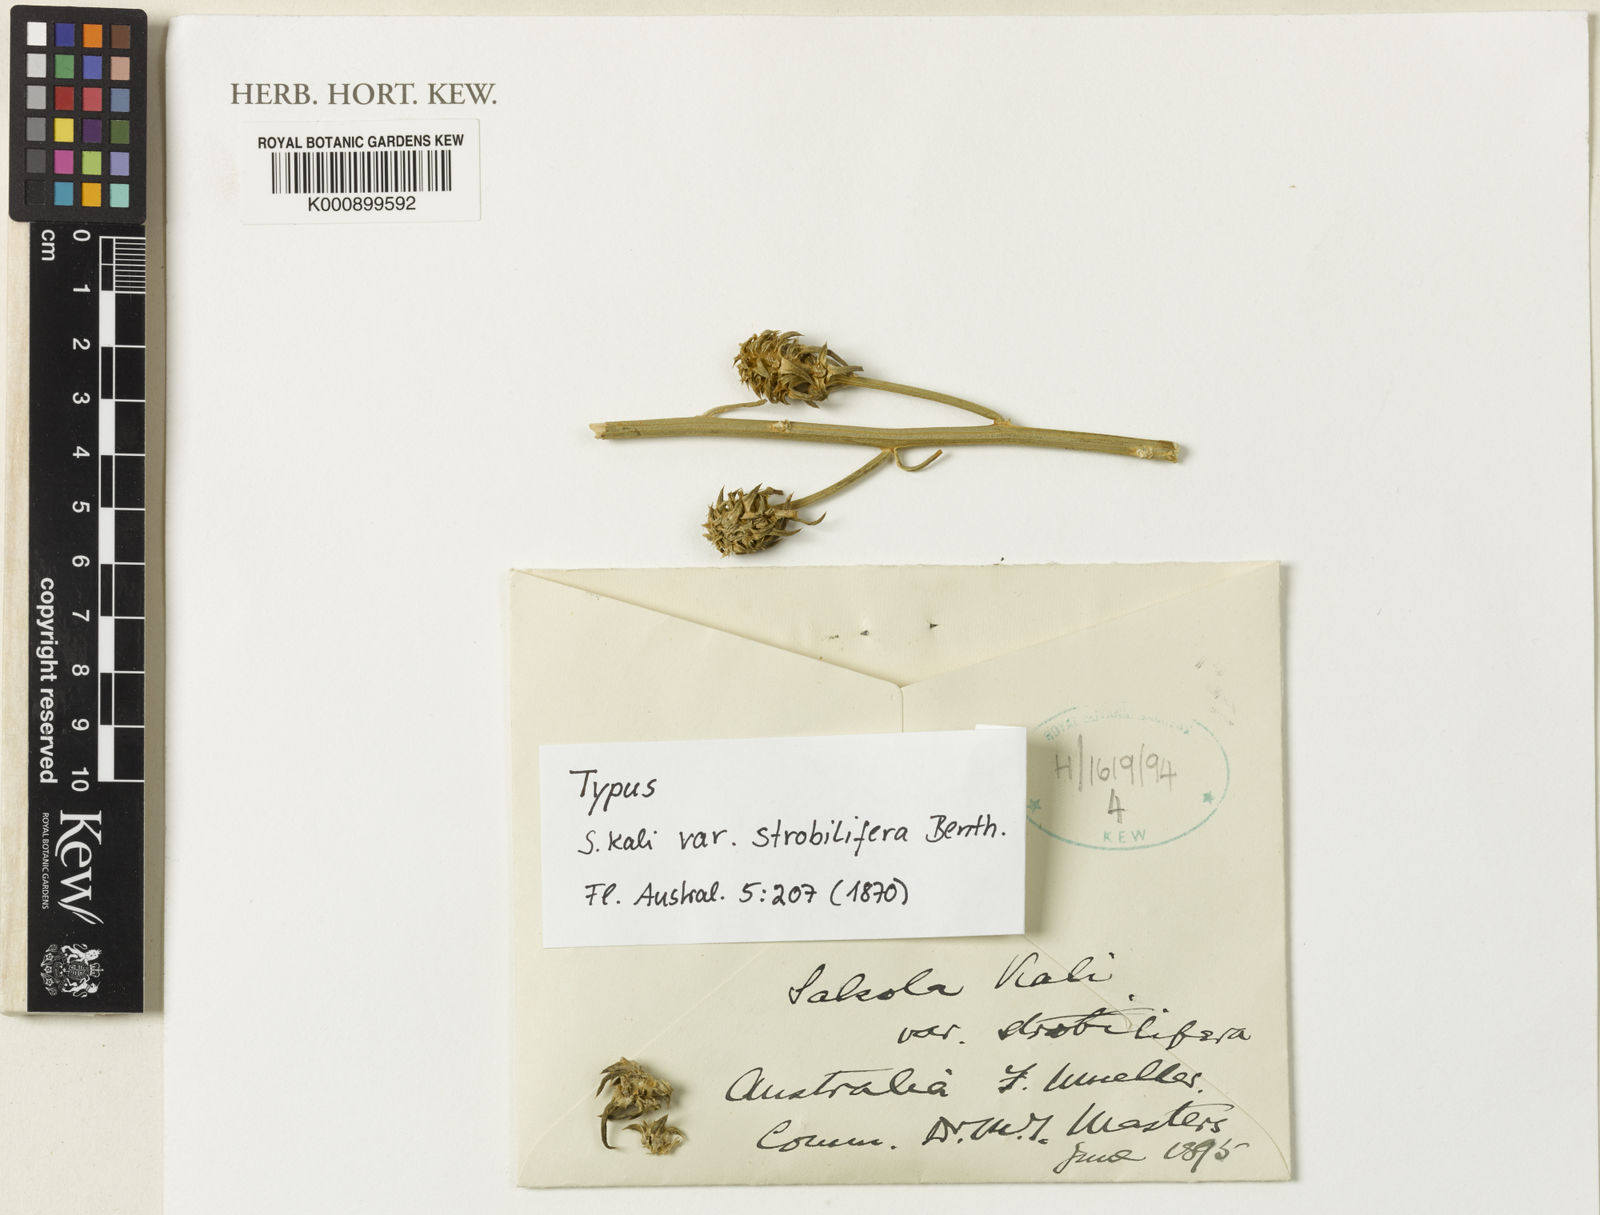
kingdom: Plantae
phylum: Tracheophyta
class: Magnoliopsida
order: Caryophyllales
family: Amaranthaceae
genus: Salsola
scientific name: Salsola kali
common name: Saltwort
